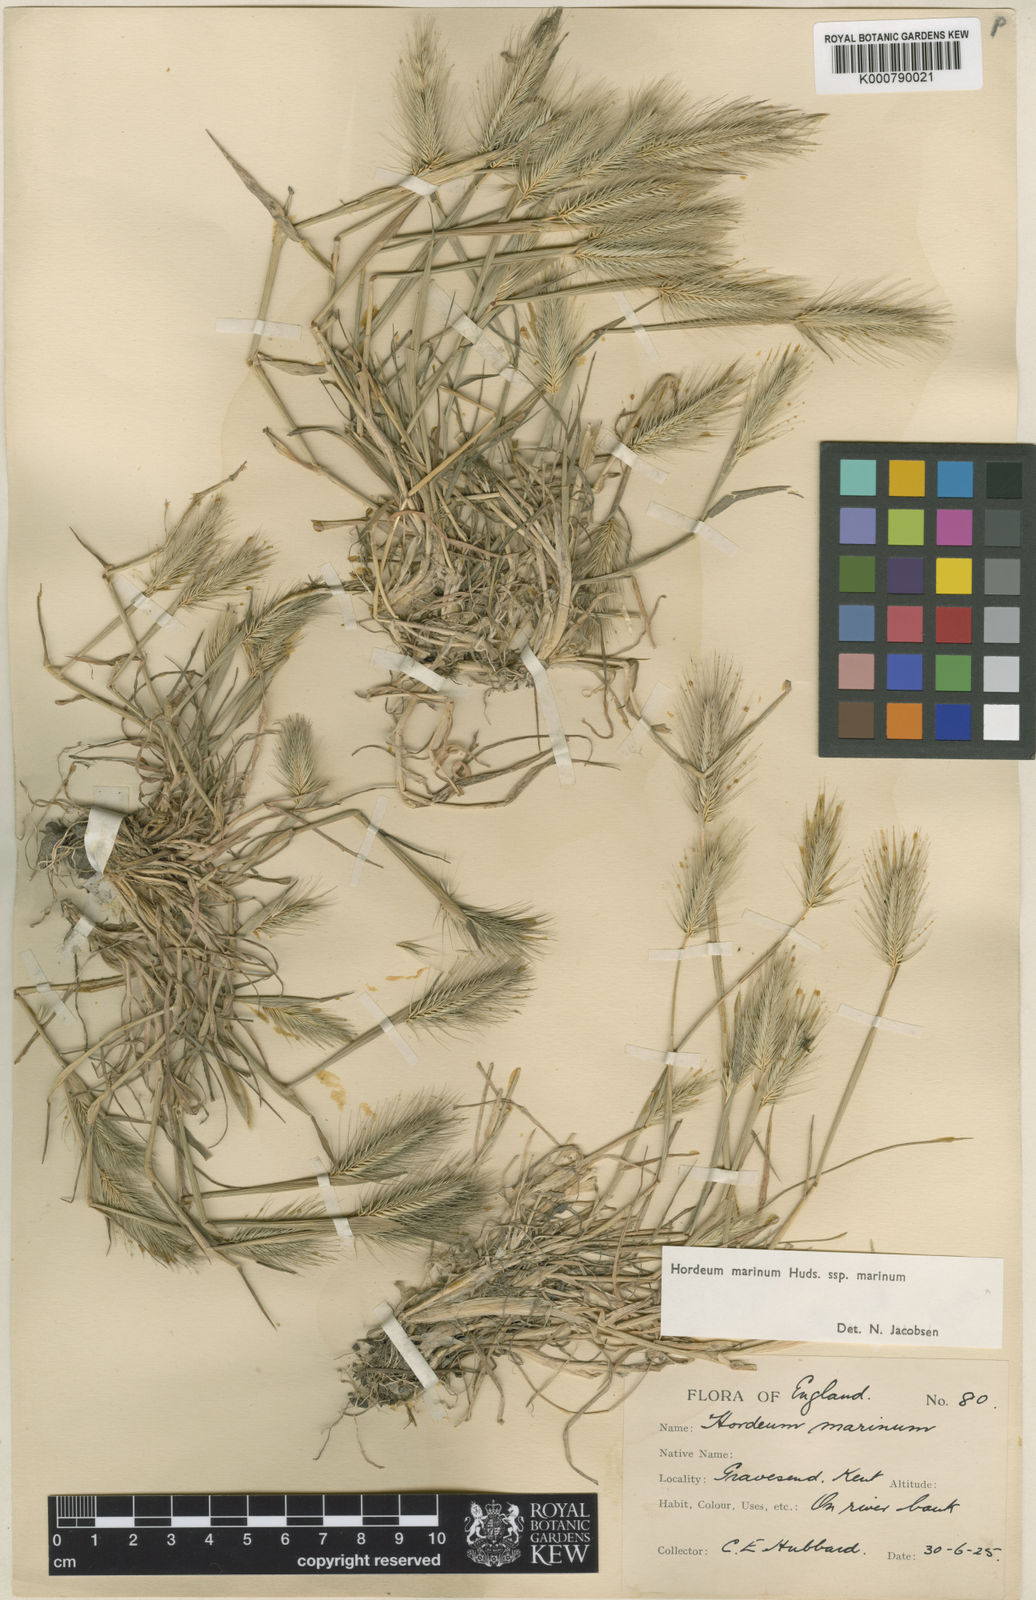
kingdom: Plantae
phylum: Tracheophyta
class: Liliopsida
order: Poales
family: Poaceae
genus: Hordeum
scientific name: Hordeum marinum
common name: Sea barley
